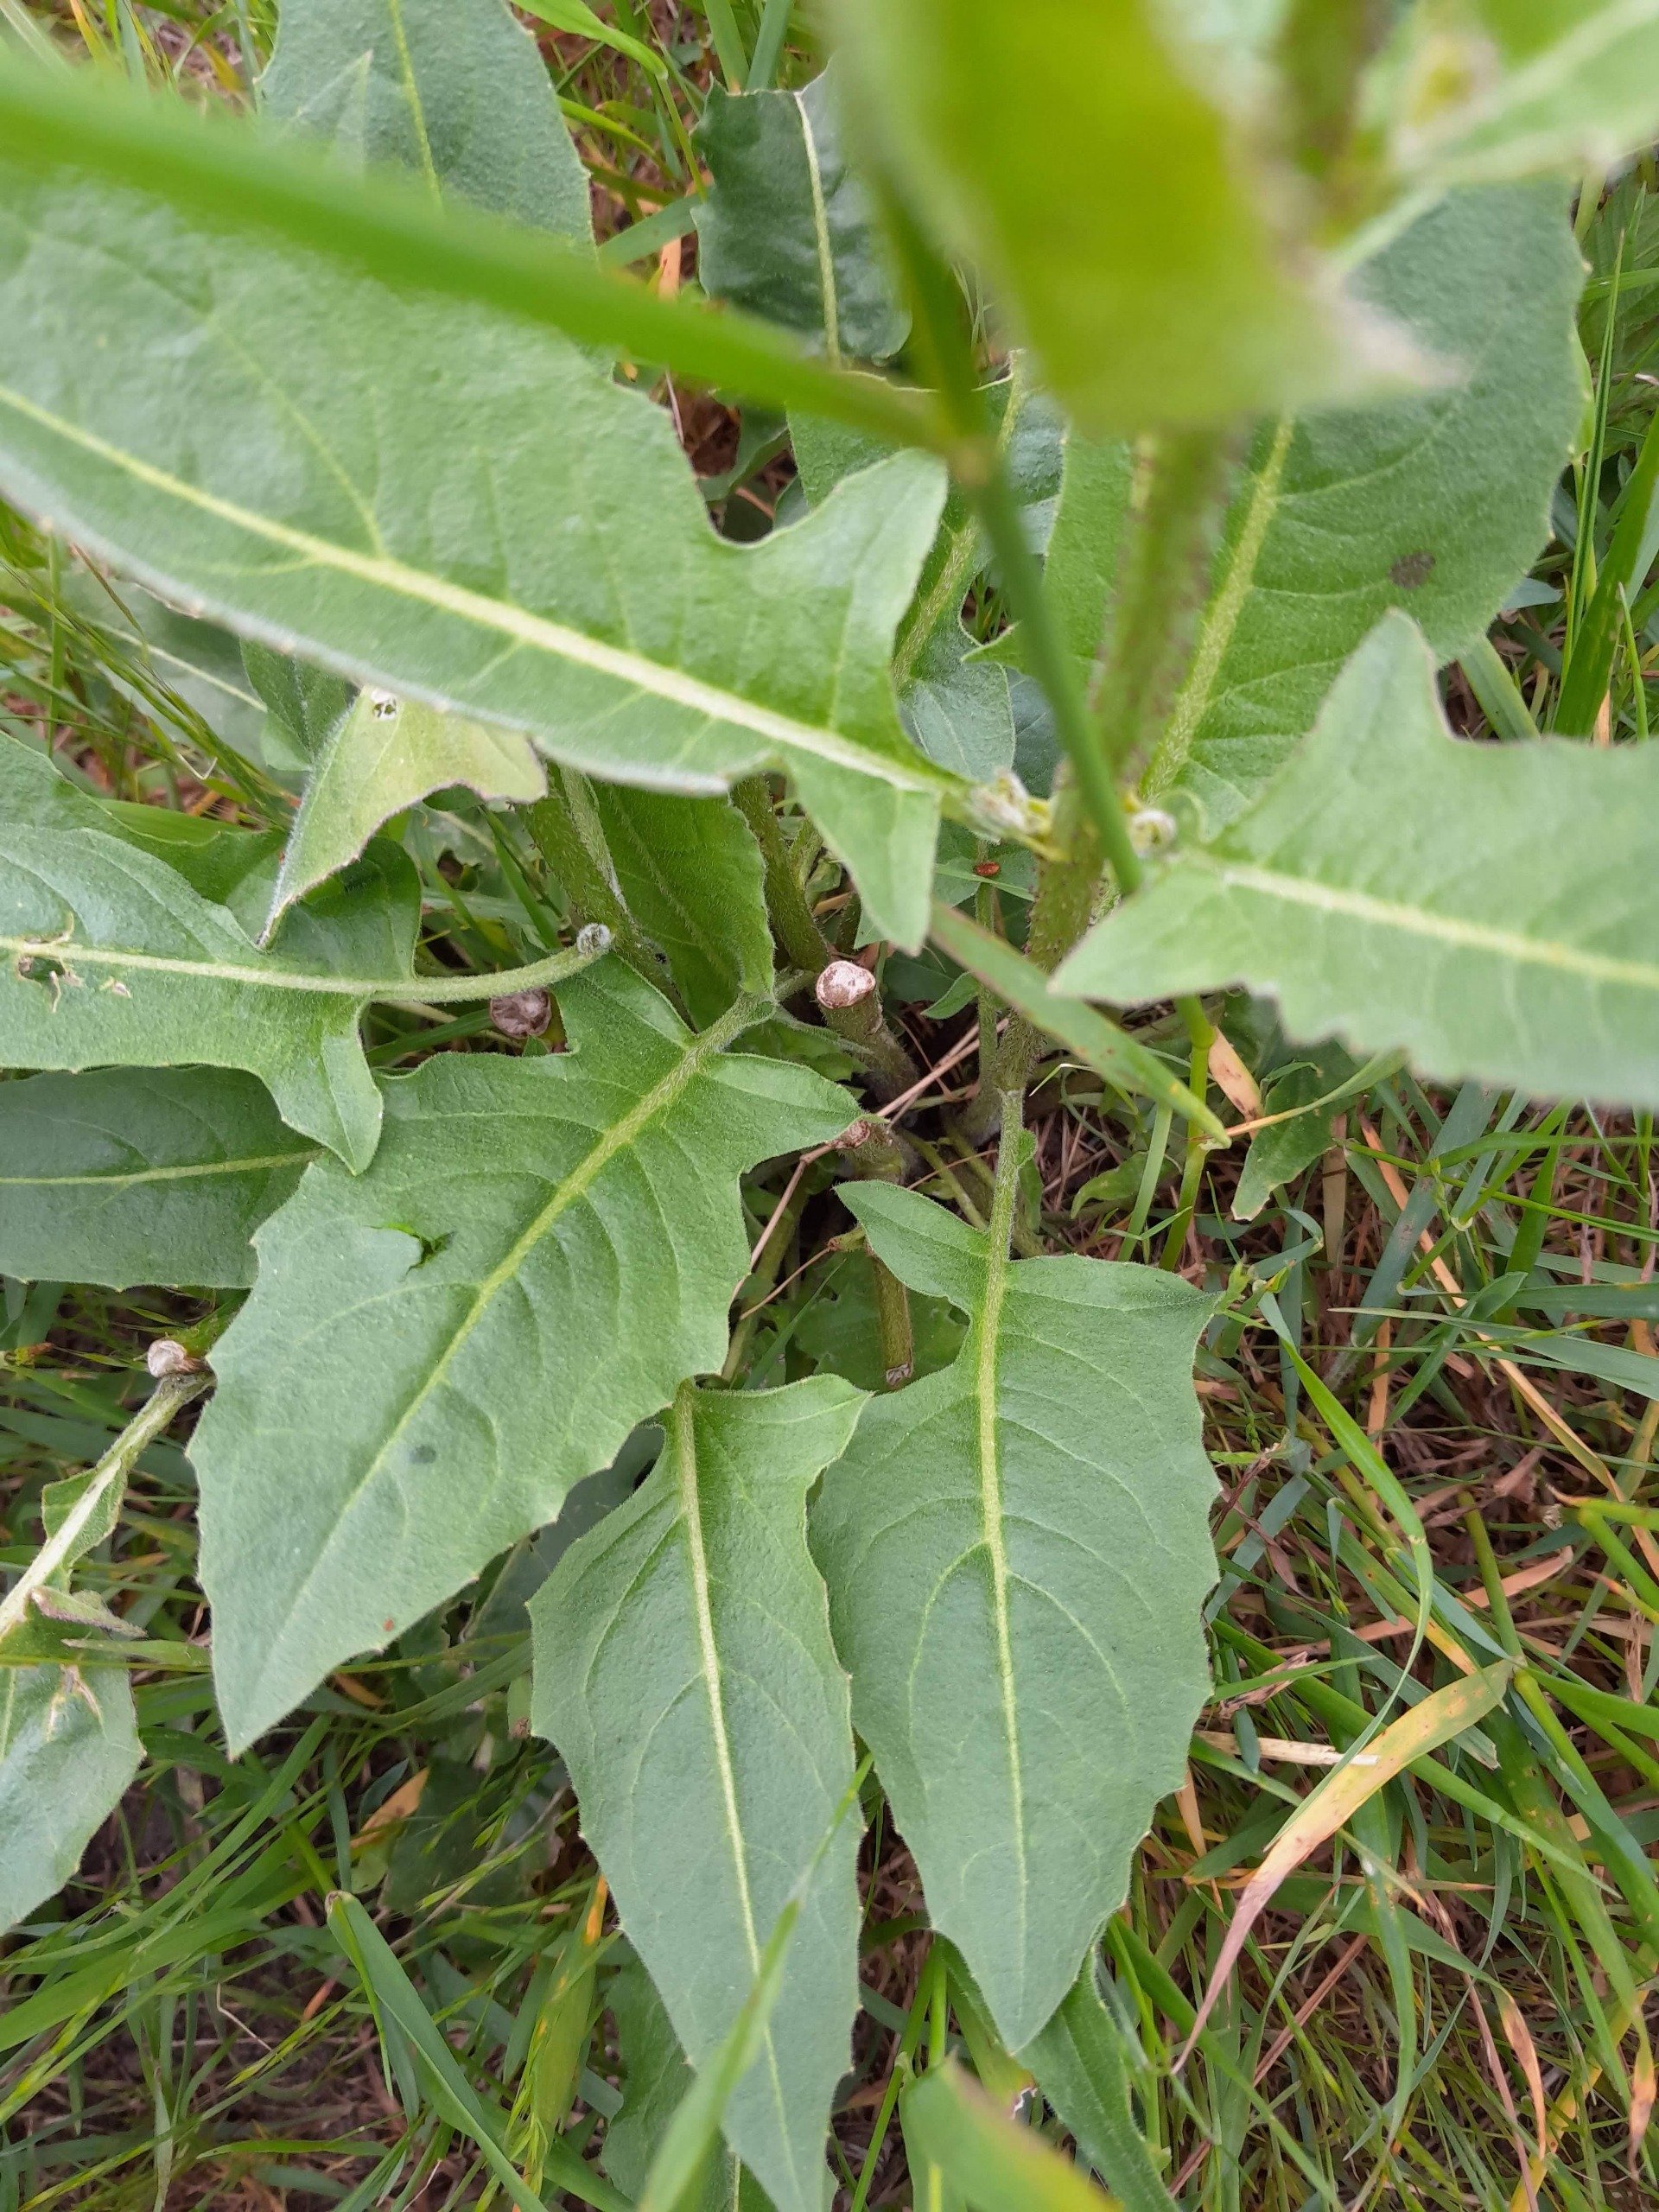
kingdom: Plantae
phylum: Tracheophyta
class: Magnoliopsida
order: Brassicales
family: Brassicaceae
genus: Bunias
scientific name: Bunias orientalis
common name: Takkeklap
